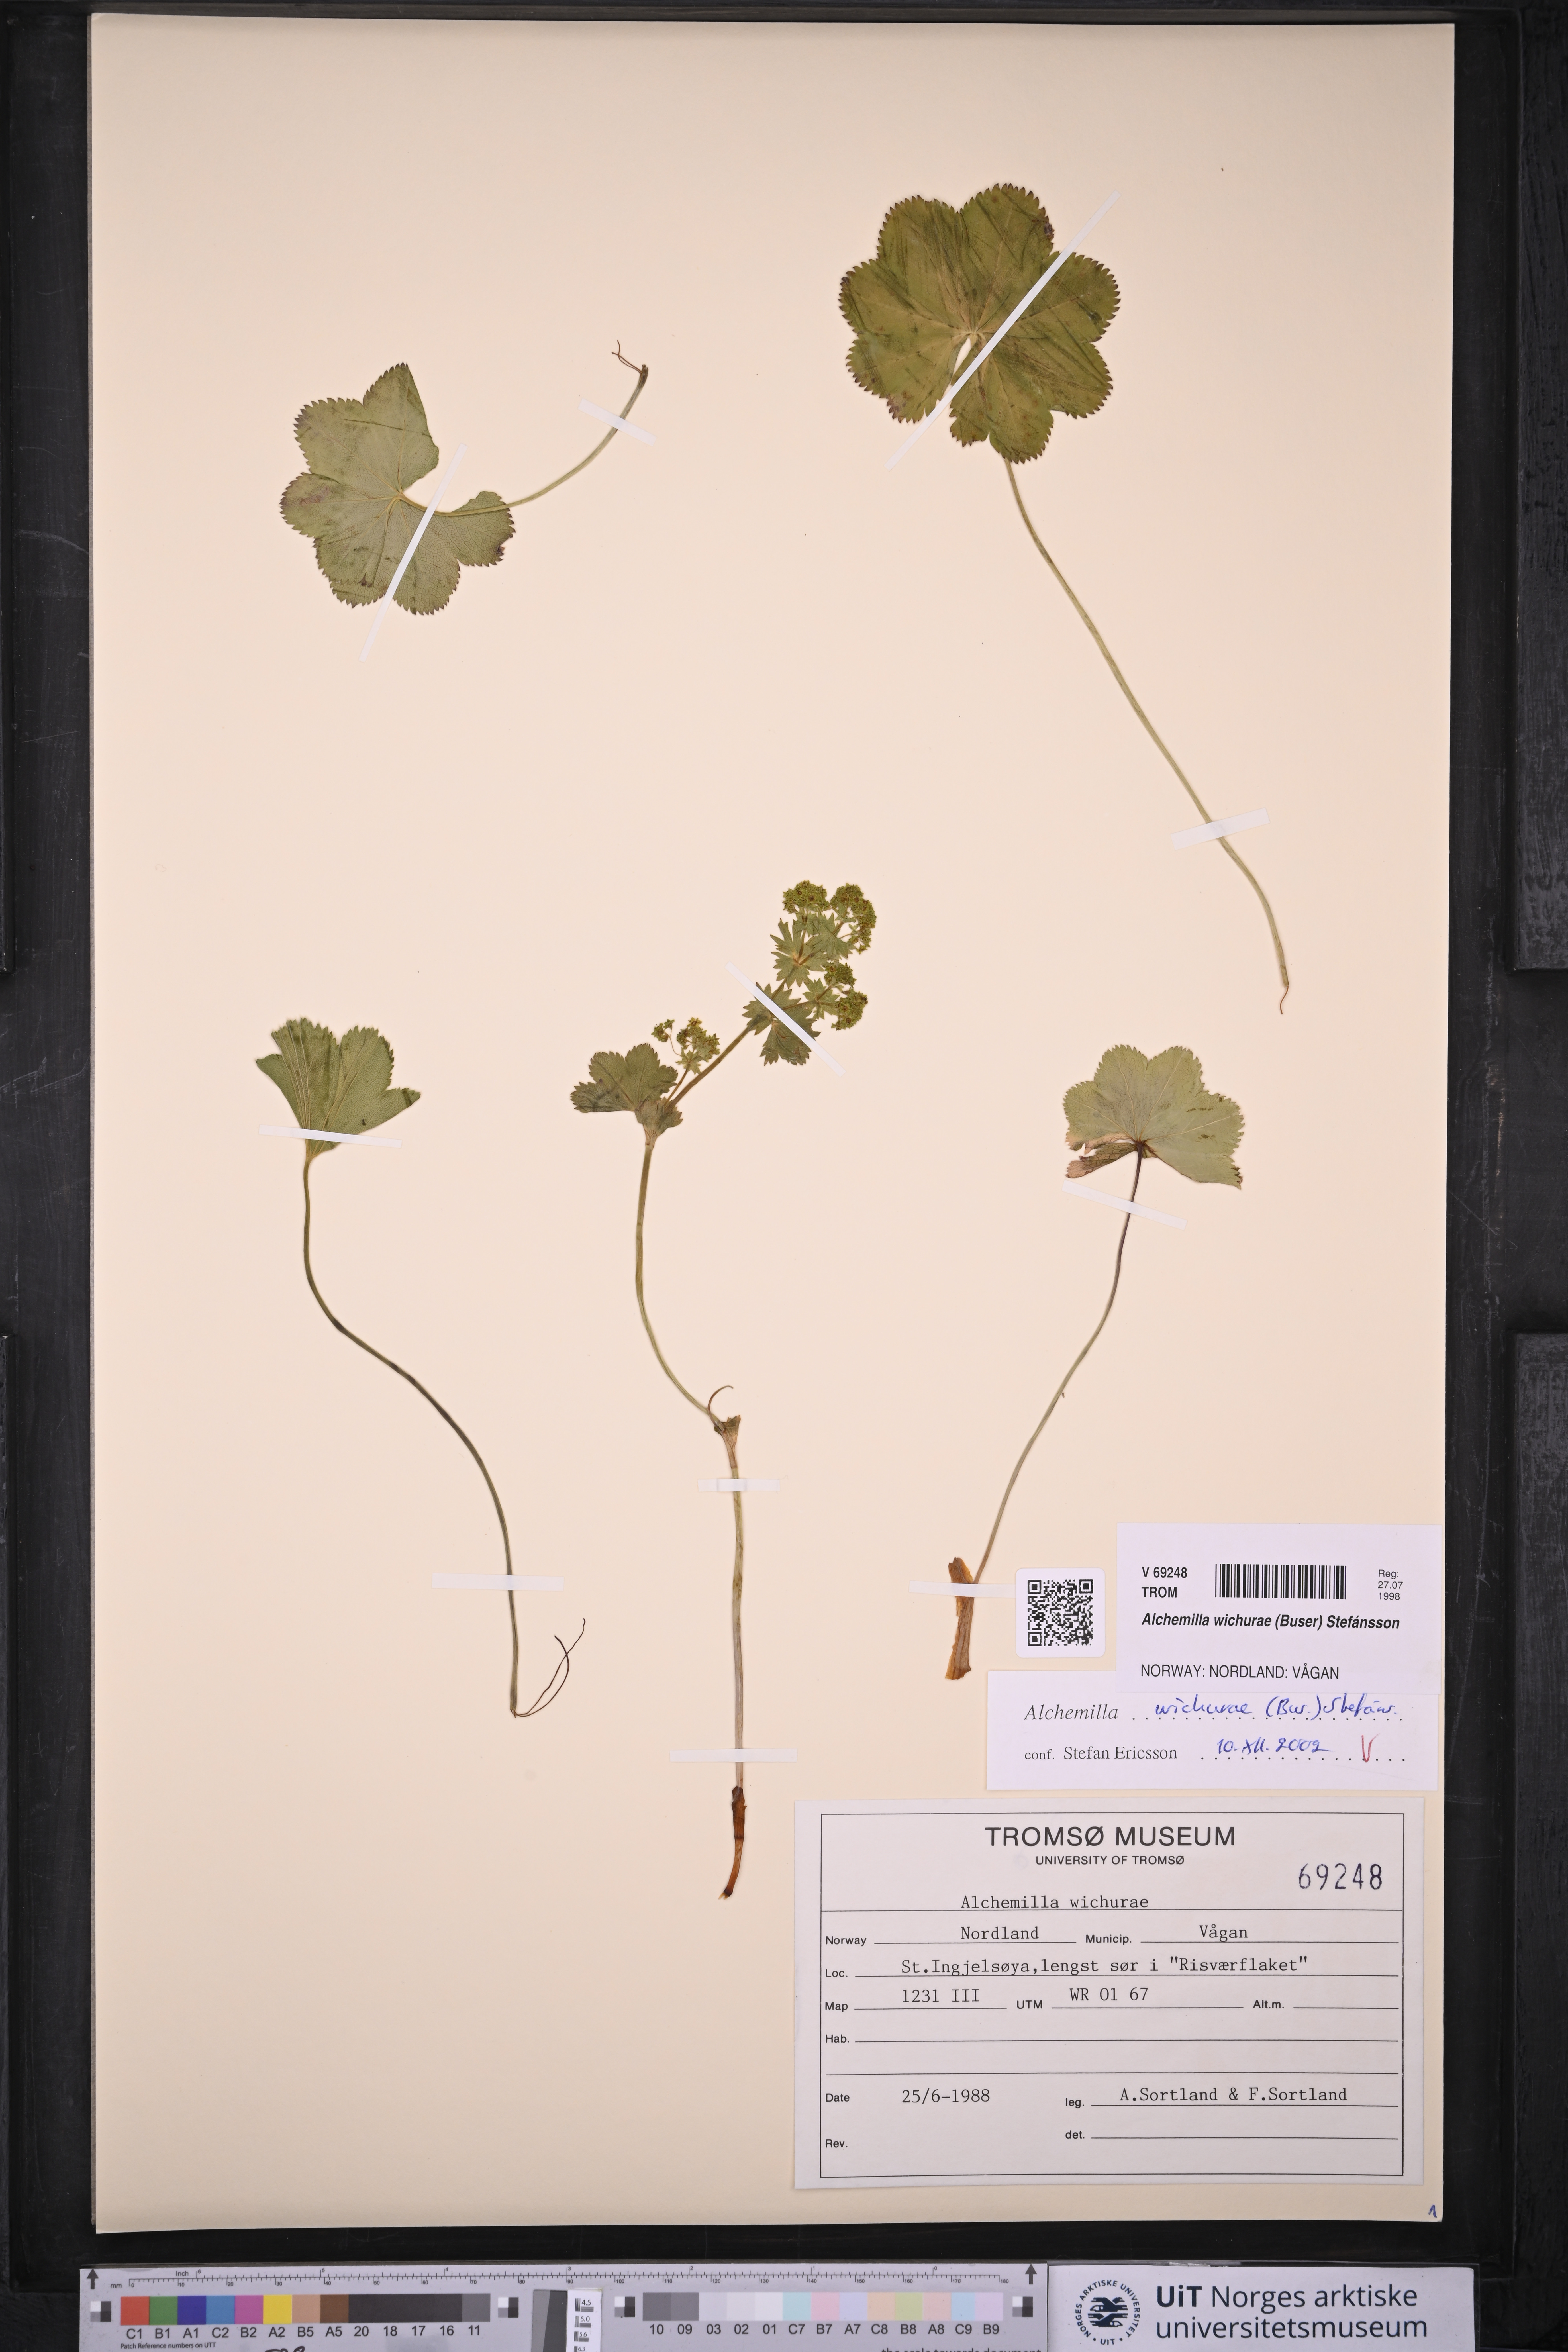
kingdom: Plantae
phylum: Tracheophyta
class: Magnoliopsida
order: Rosales
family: Rosaceae
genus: Alchemilla
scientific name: Alchemilla wichurae
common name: Rock lady's mantle
